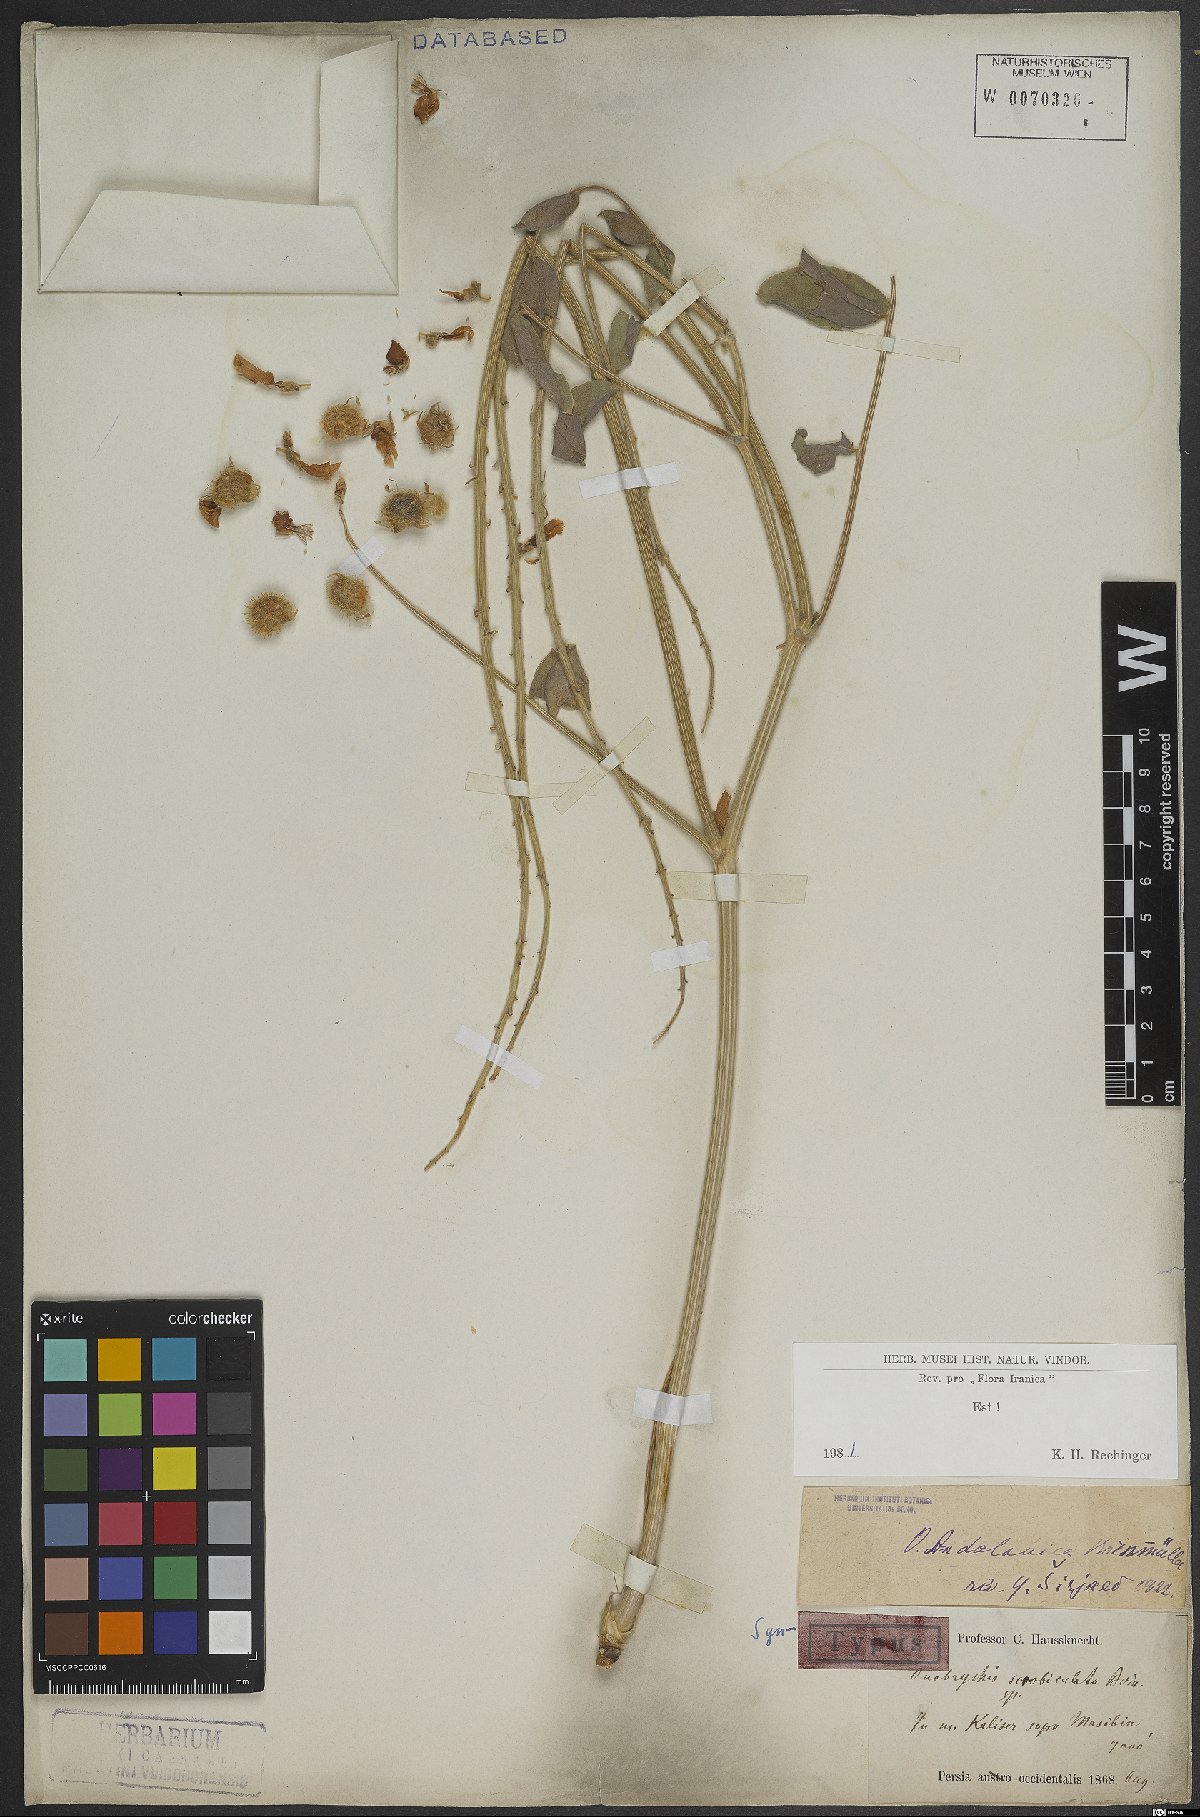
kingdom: Plantae
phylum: Tracheophyta
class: Magnoliopsida
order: Fabales
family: Fabaceae
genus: Onobrychis
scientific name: Onobrychis andalanica
